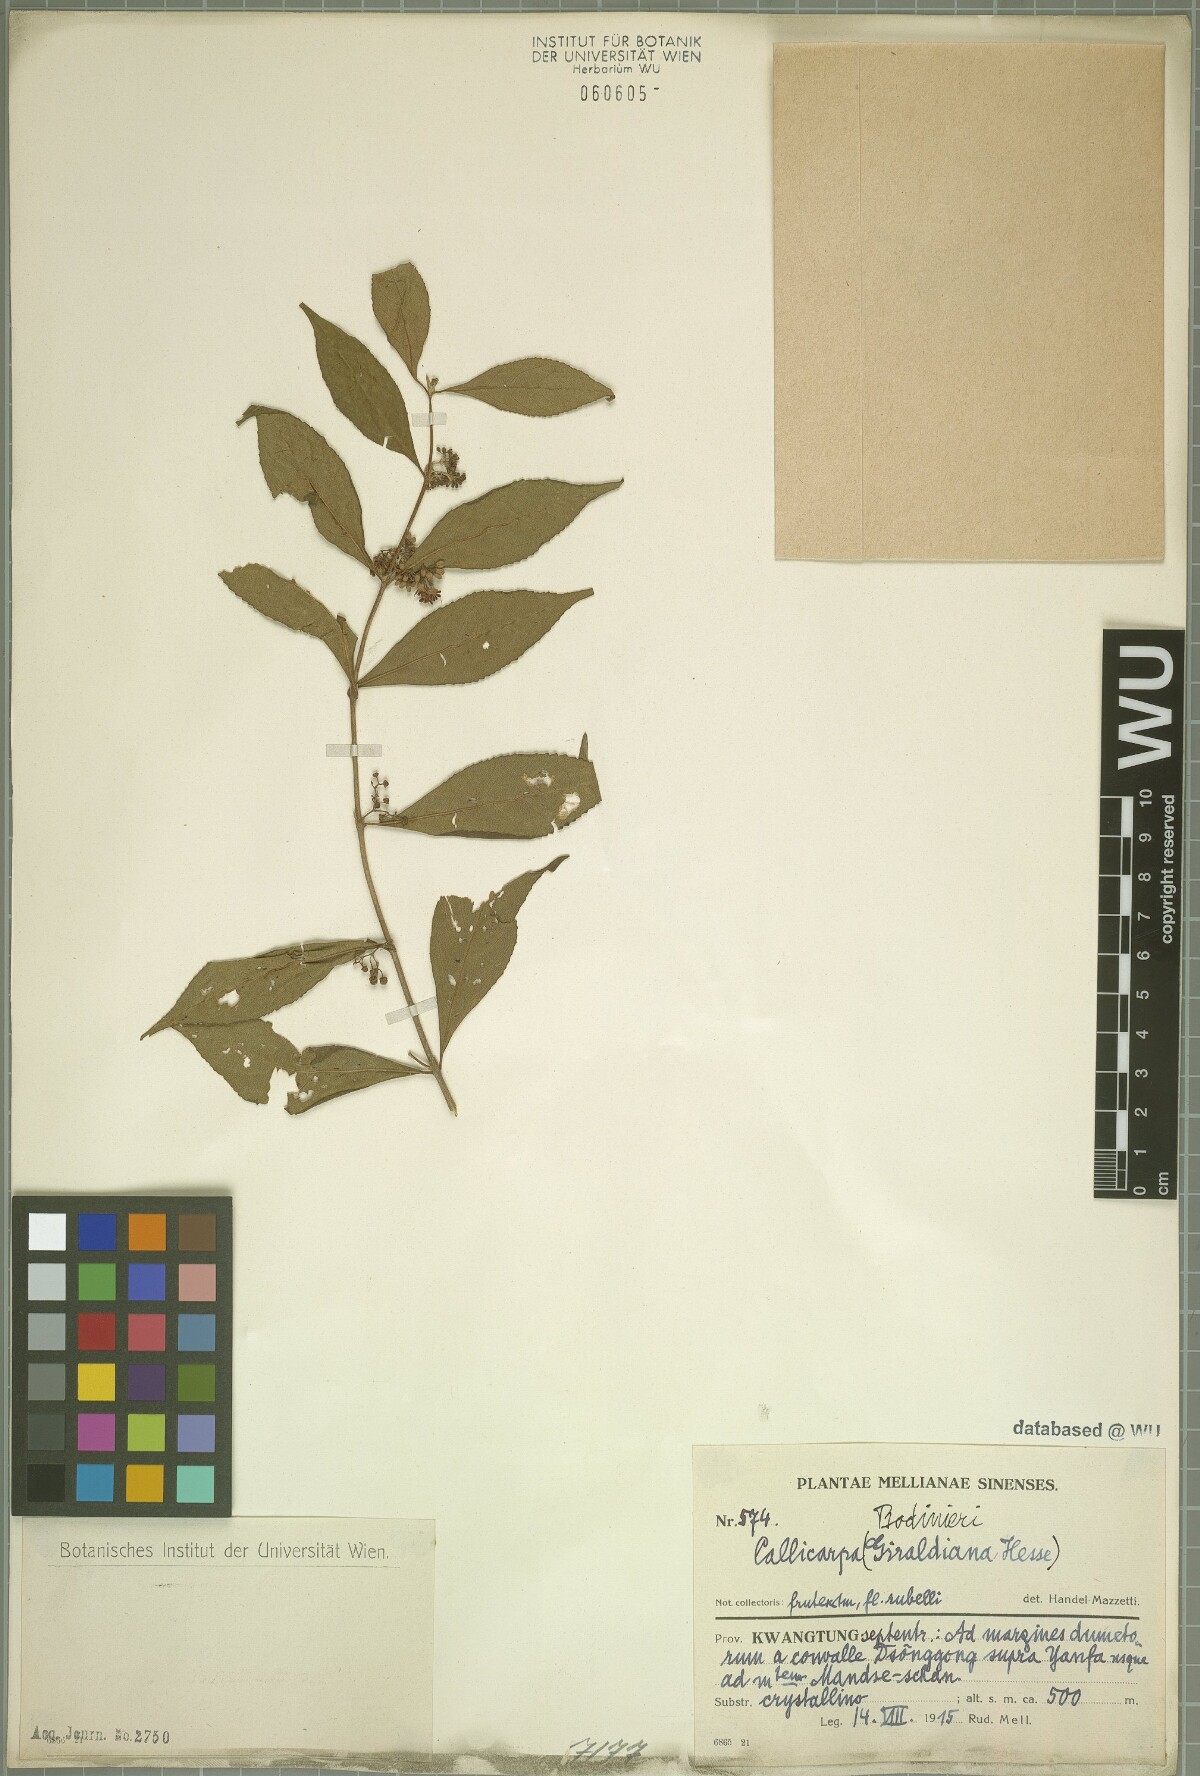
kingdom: Plantae
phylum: Tracheophyta
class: Magnoliopsida
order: Lamiales
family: Lamiaceae
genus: Callicarpa
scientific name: Callicarpa bodinieri
